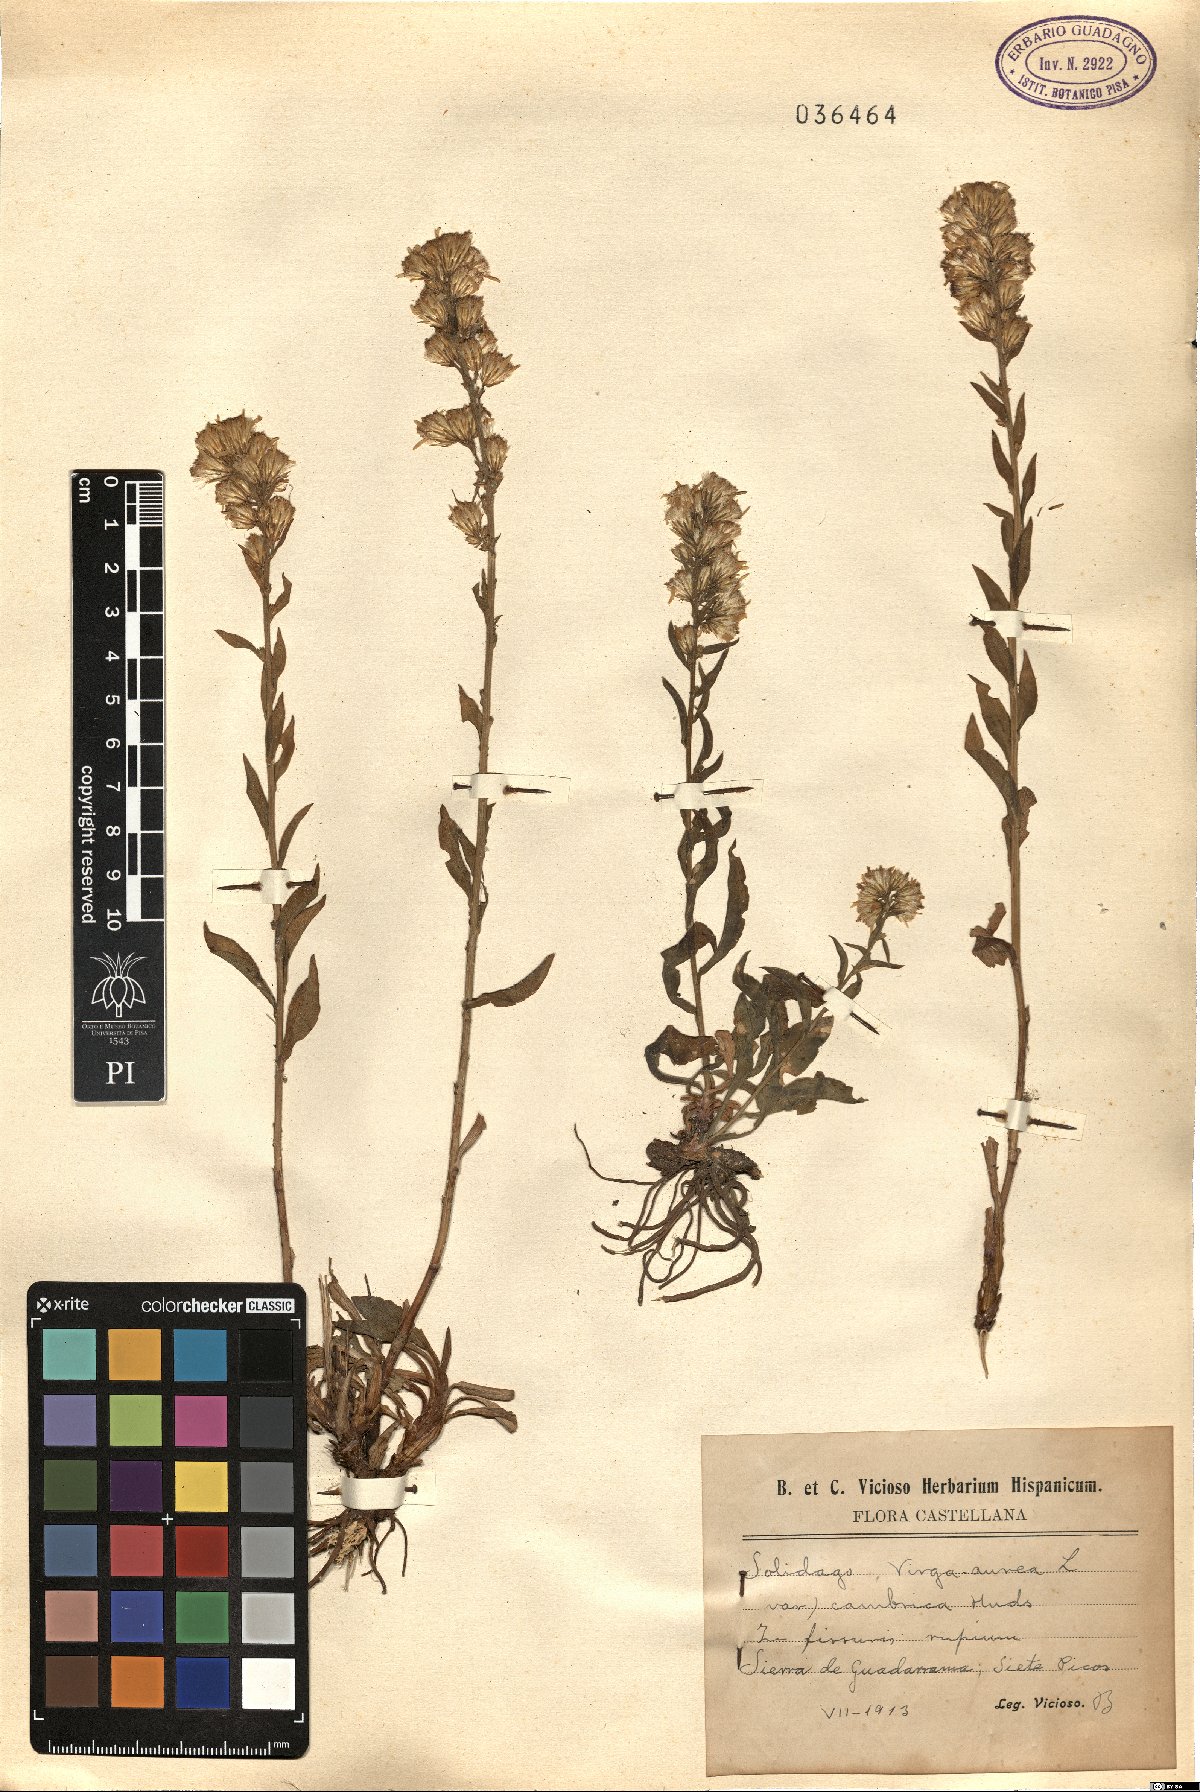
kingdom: Plantae
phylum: Tracheophyta
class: Magnoliopsida
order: Asterales
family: Asteraceae
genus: Solidago
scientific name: Solidago virgaurea
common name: Goldenrod
